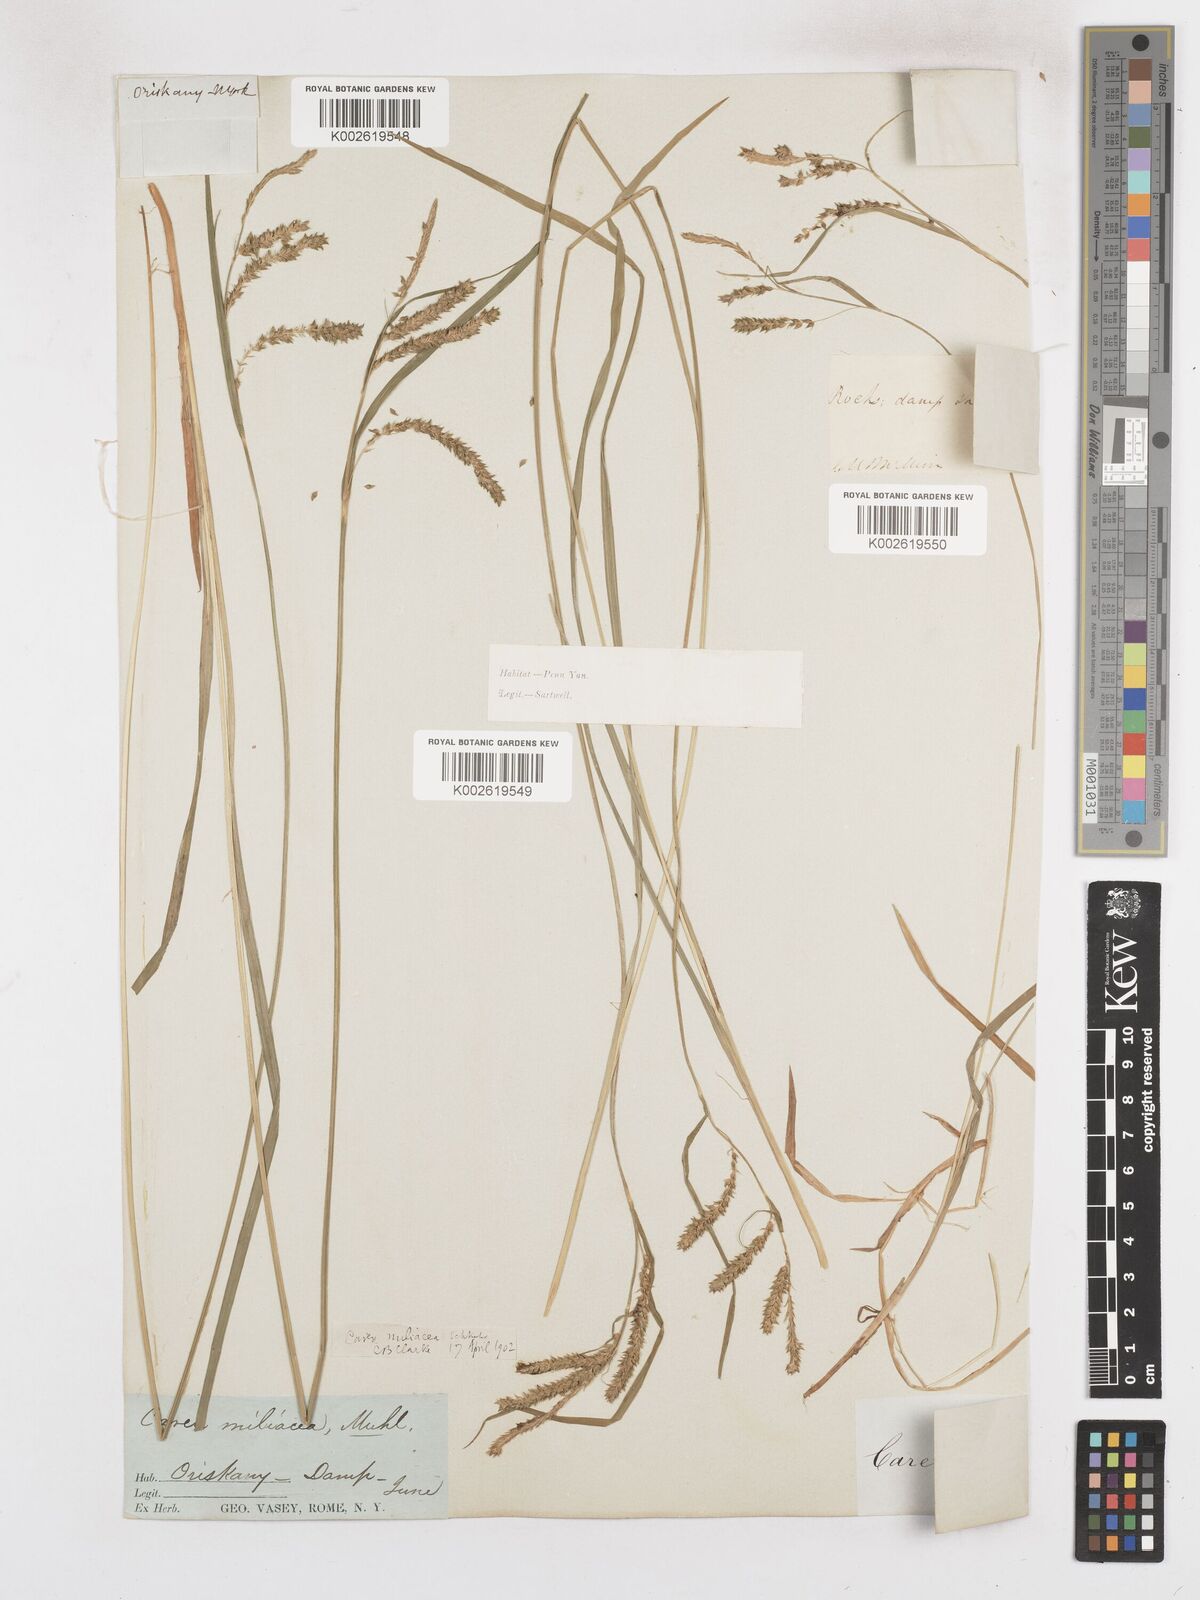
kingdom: Plantae
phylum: Tracheophyta
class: Liliopsida
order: Poales
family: Cyperaceae
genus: Carex
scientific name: Carex prasina
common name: Drooping sedge
